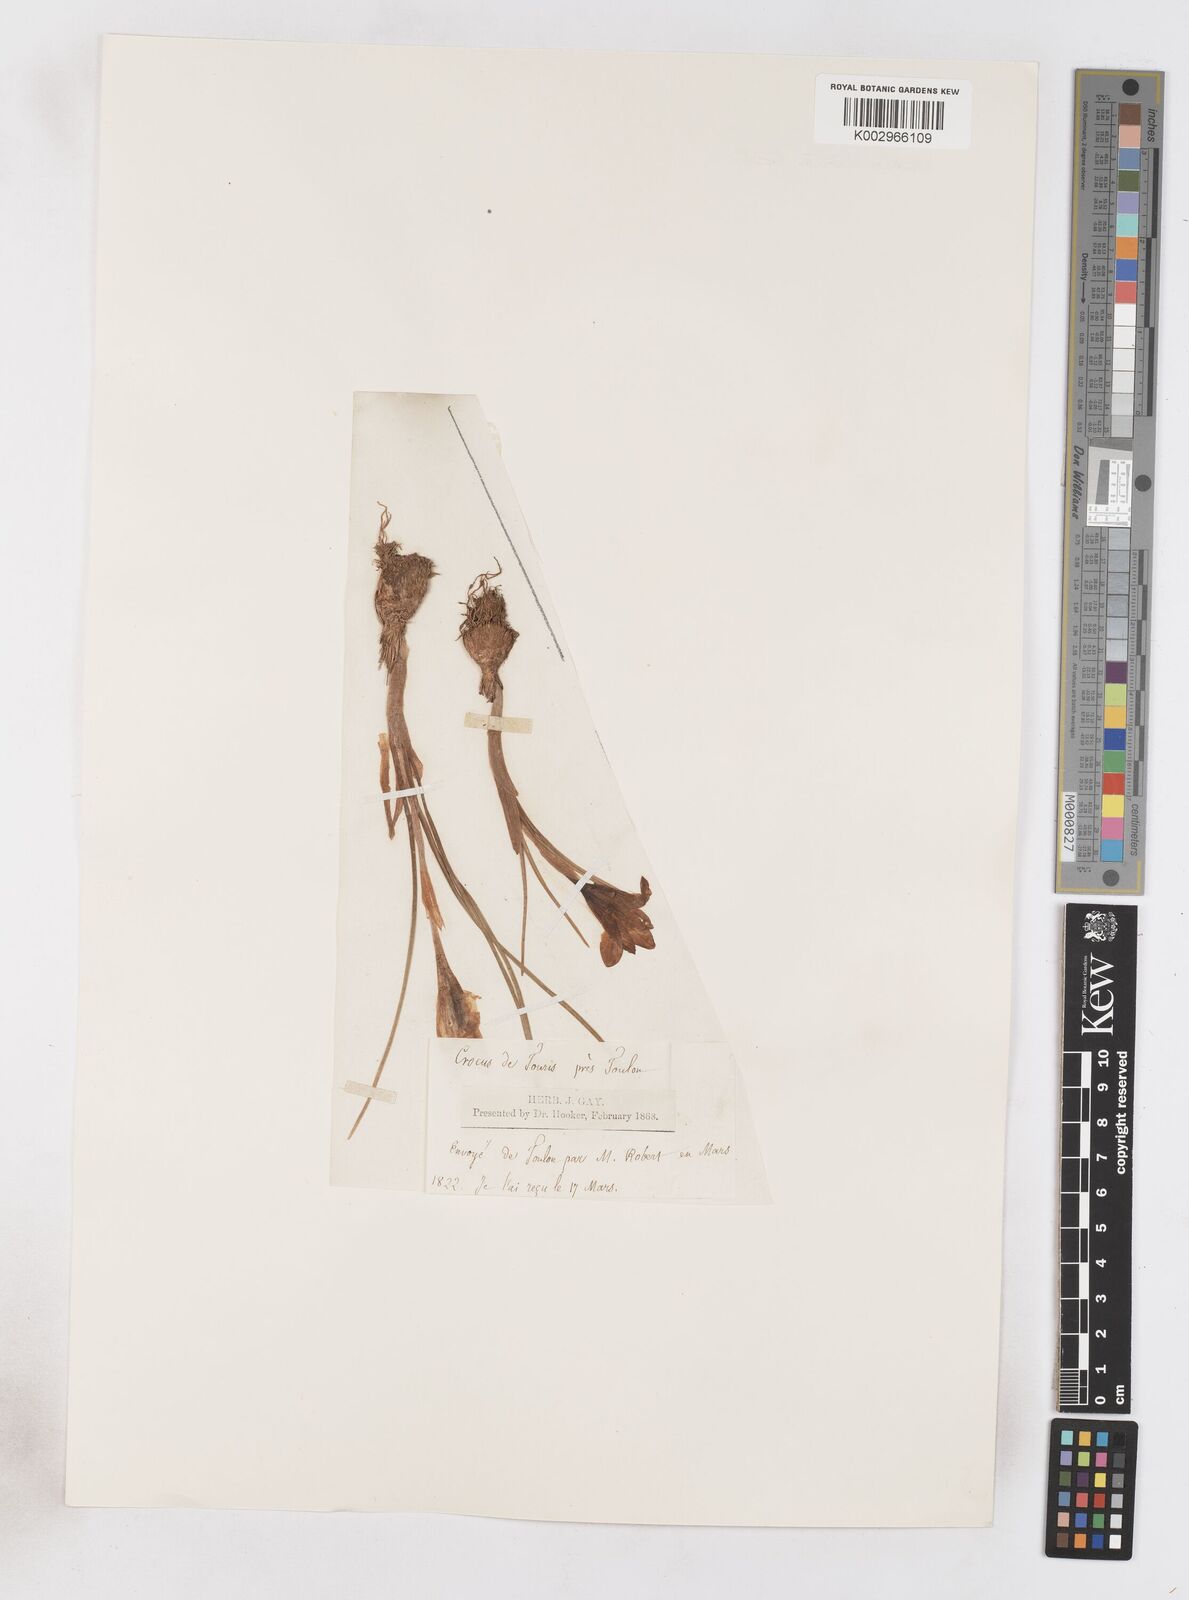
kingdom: Plantae
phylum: Tracheophyta
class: Liliopsida
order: Asparagales
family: Iridaceae
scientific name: Iridaceae
